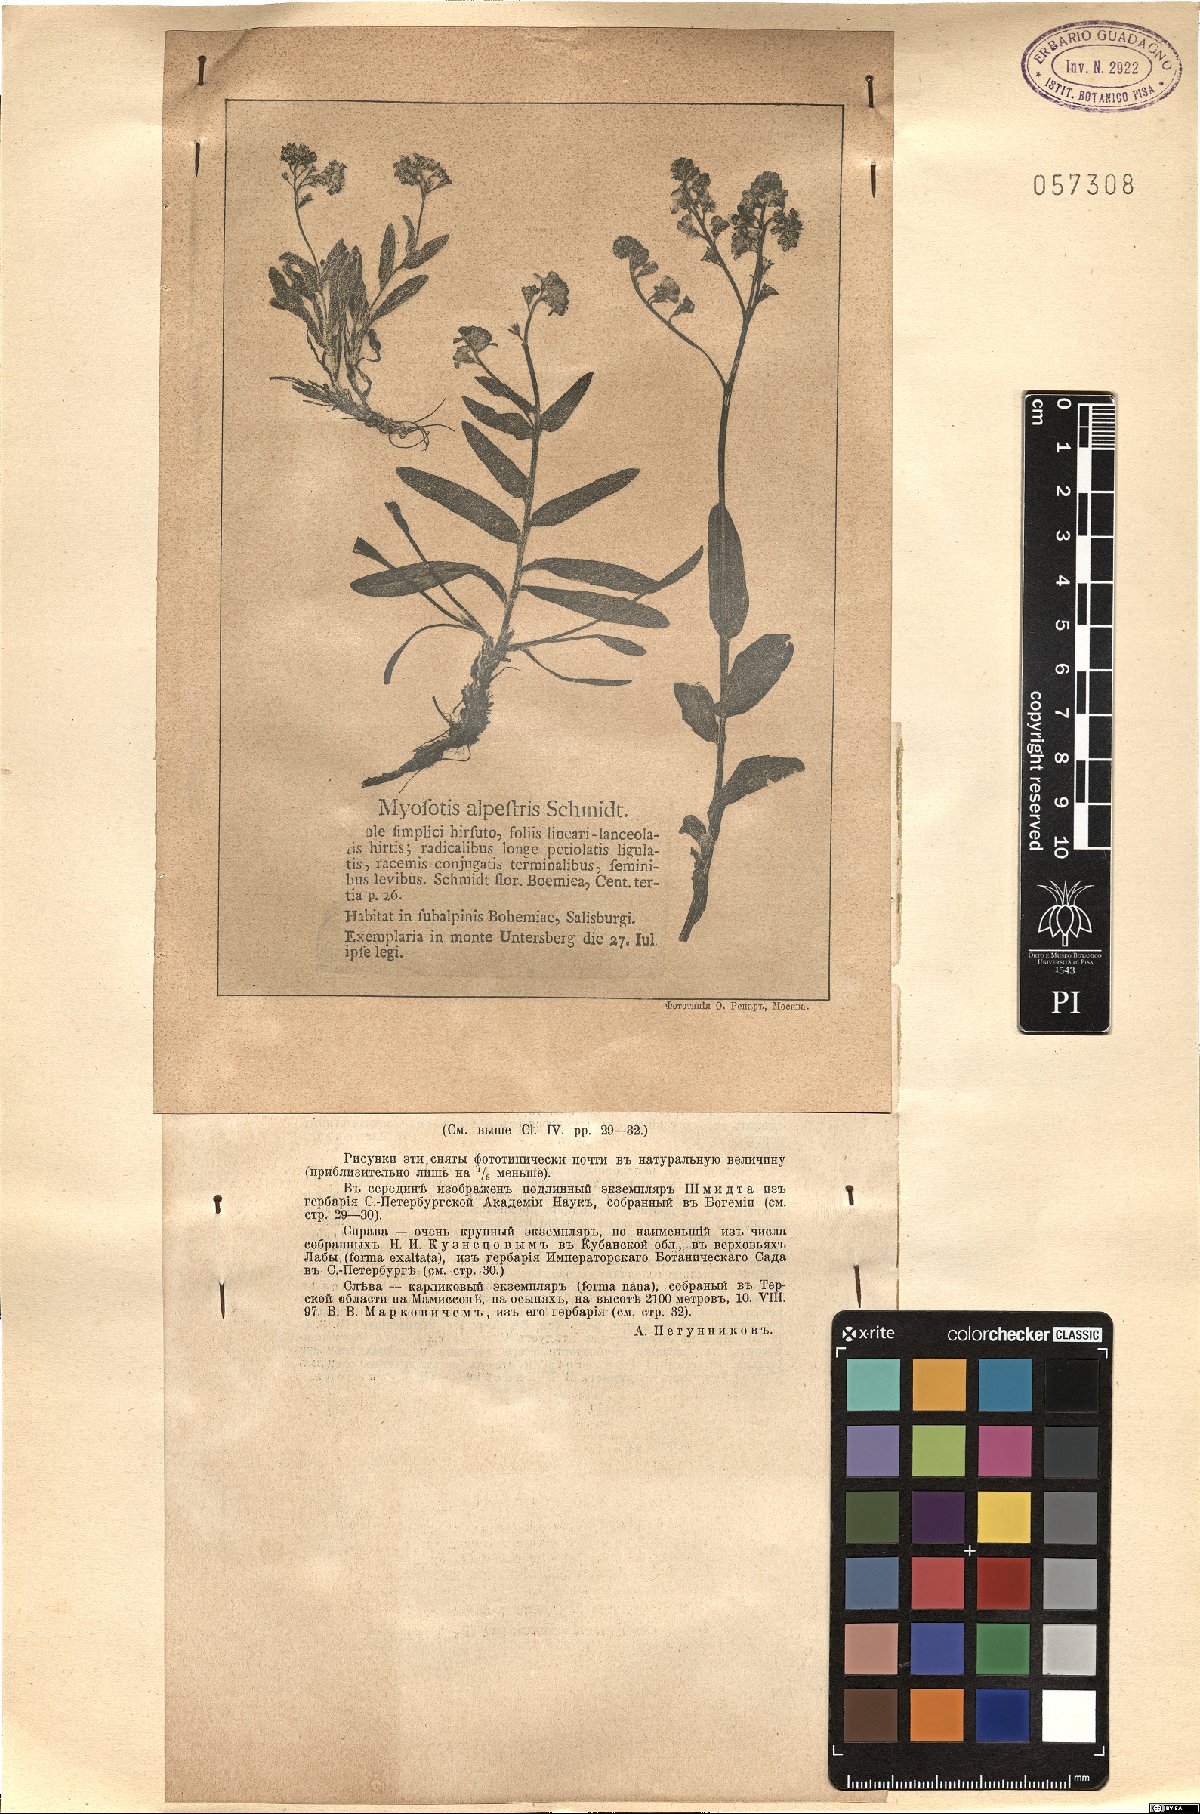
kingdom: Plantae
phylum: Tracheophyta
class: Magnoliopsida
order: Boraginales
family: Boraginaceae
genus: Myosotis
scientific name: Myosotis alpestris
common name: Alpine forget-me-not
